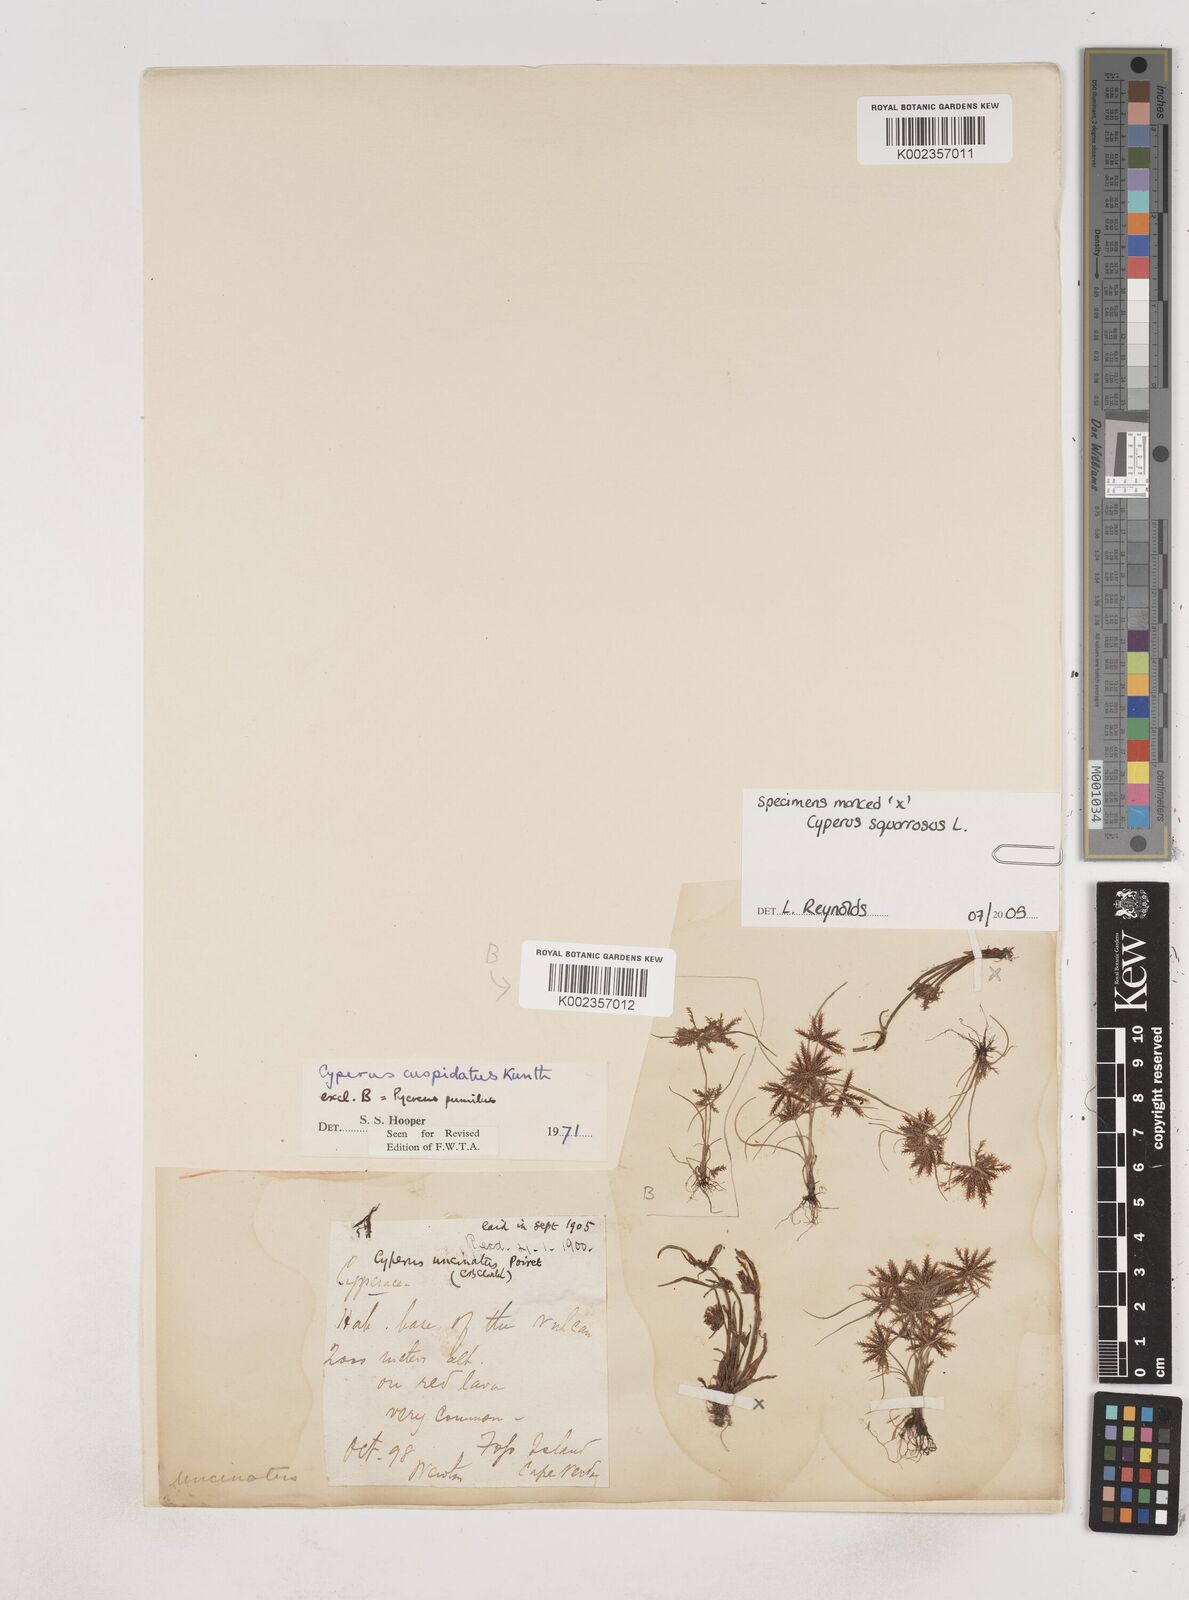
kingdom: Plantae
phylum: Tracheophyta
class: Liliopsida
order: Poales
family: Cyperaceae
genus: Cyperus
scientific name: Cyperus
